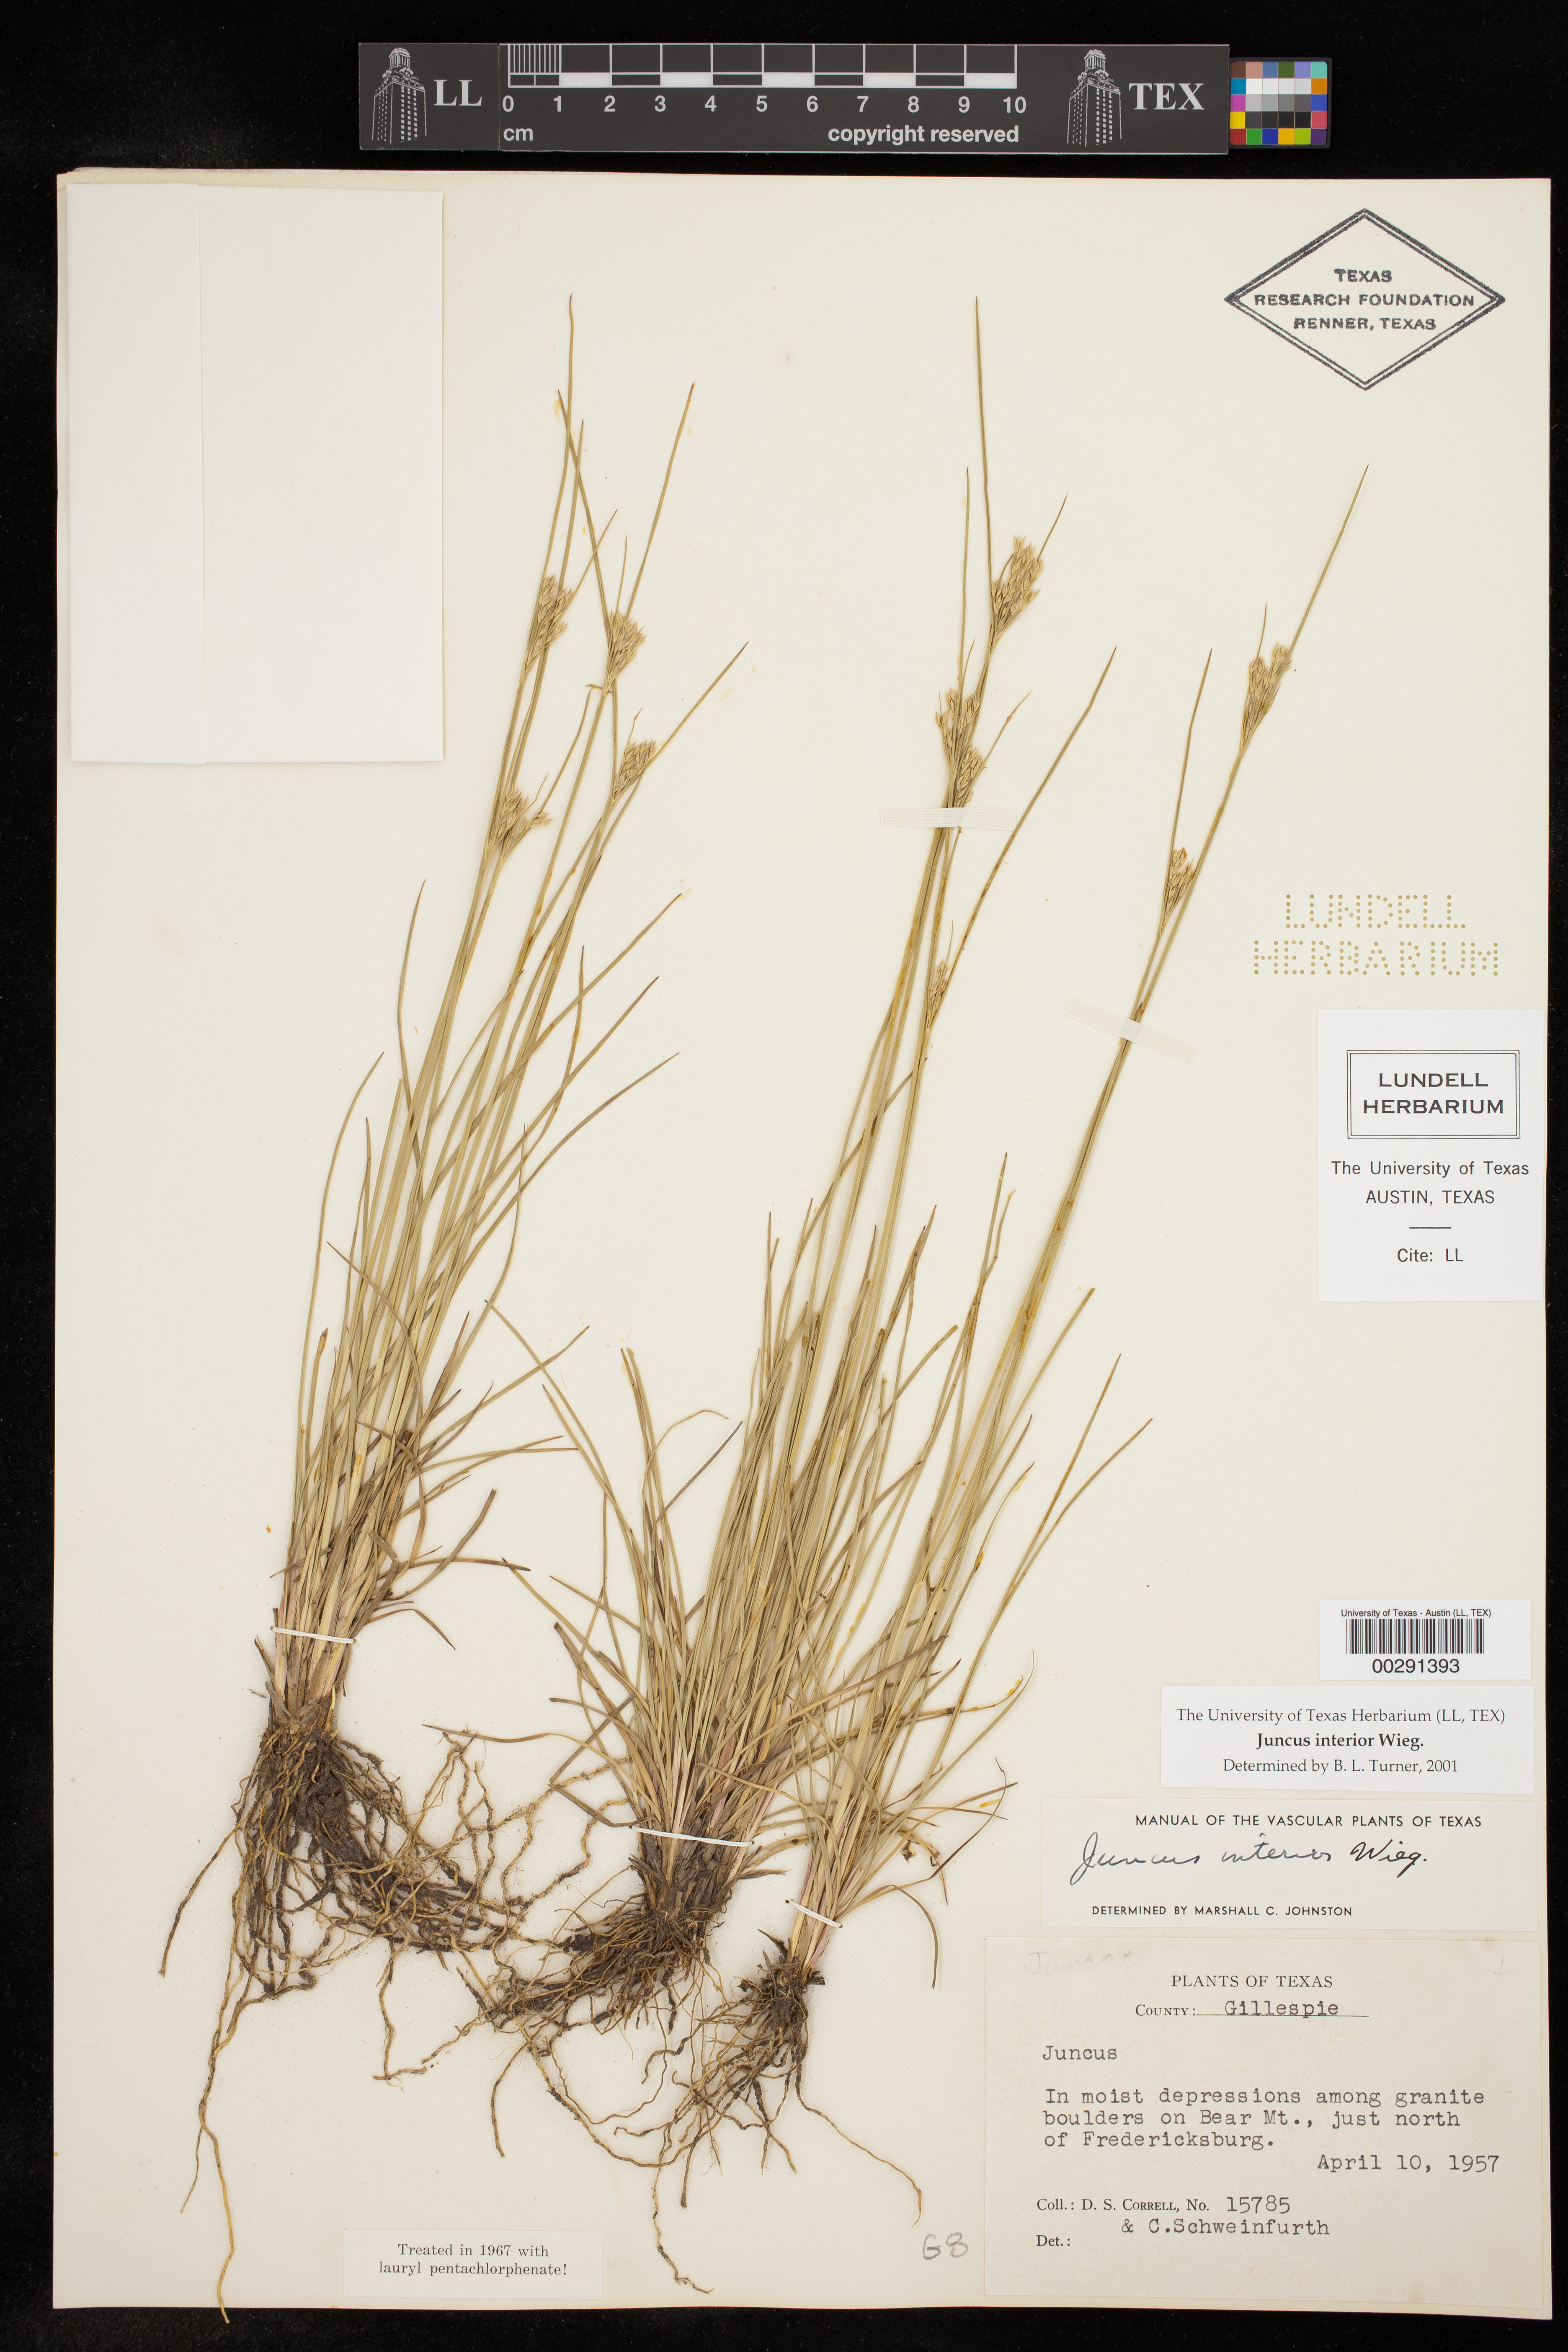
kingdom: Plantae
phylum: Tracheophyta
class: Liliopsida
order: Poales
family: Juncaceae
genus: Juncus
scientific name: Juncus interior
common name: Interior rush
